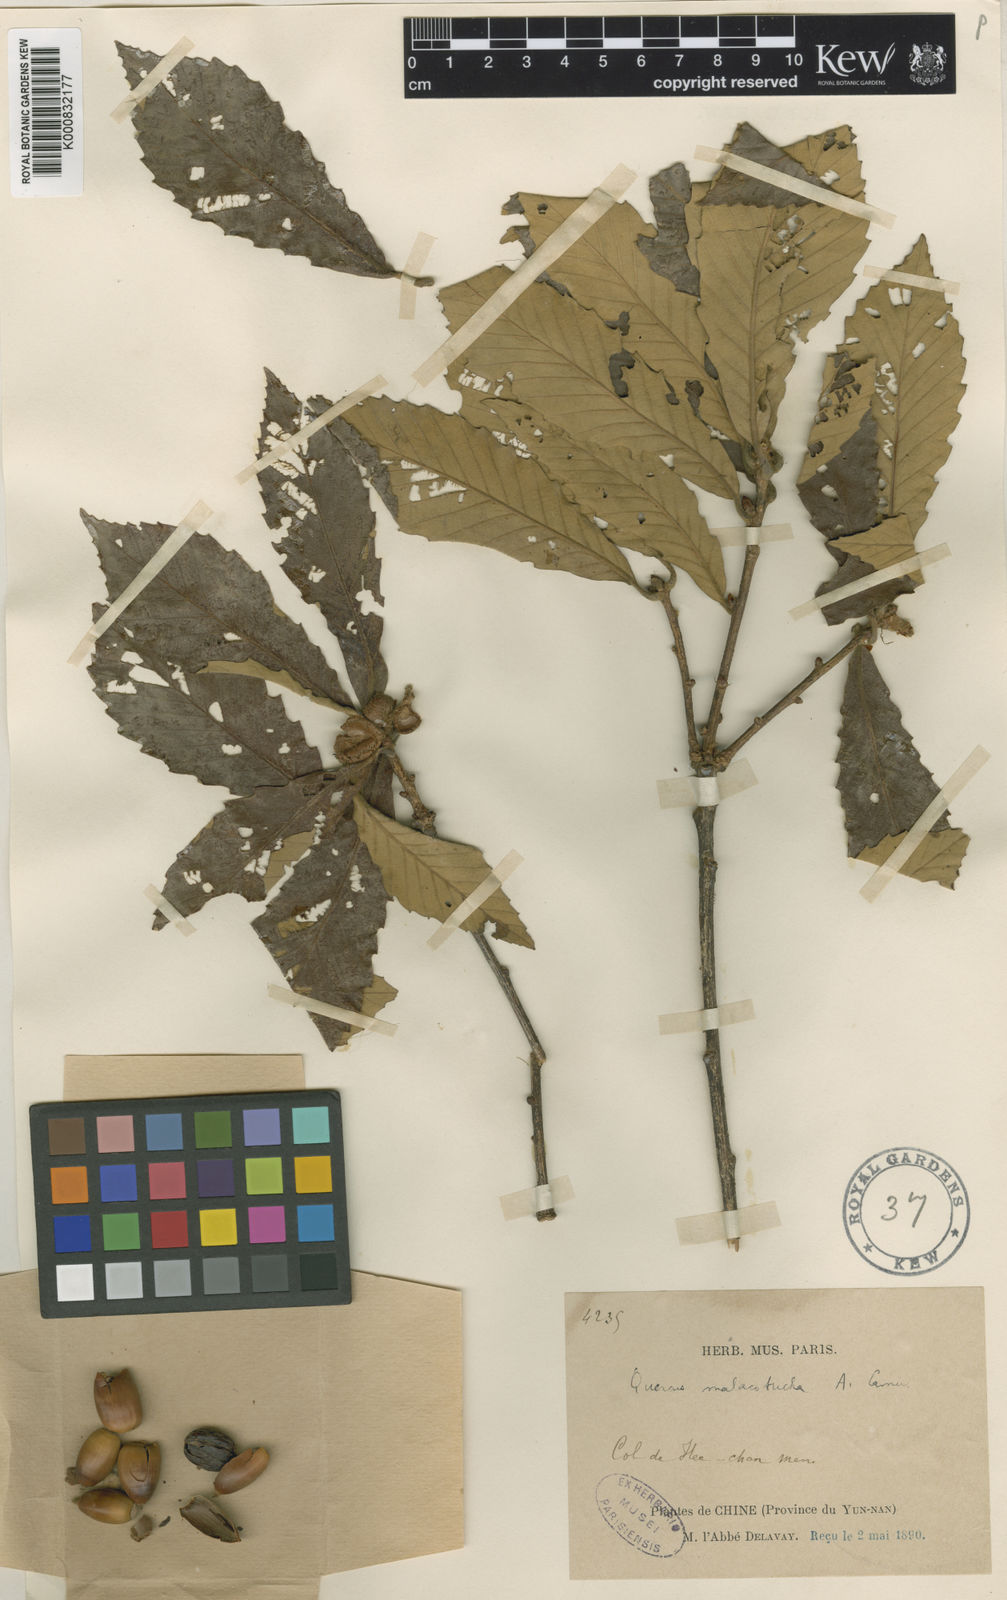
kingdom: Plantae
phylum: Tracheophyta
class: Magnoliopsida
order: Fagales
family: Fagaceae
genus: Quercus
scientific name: Quercus dentata
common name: Daimyo oak
